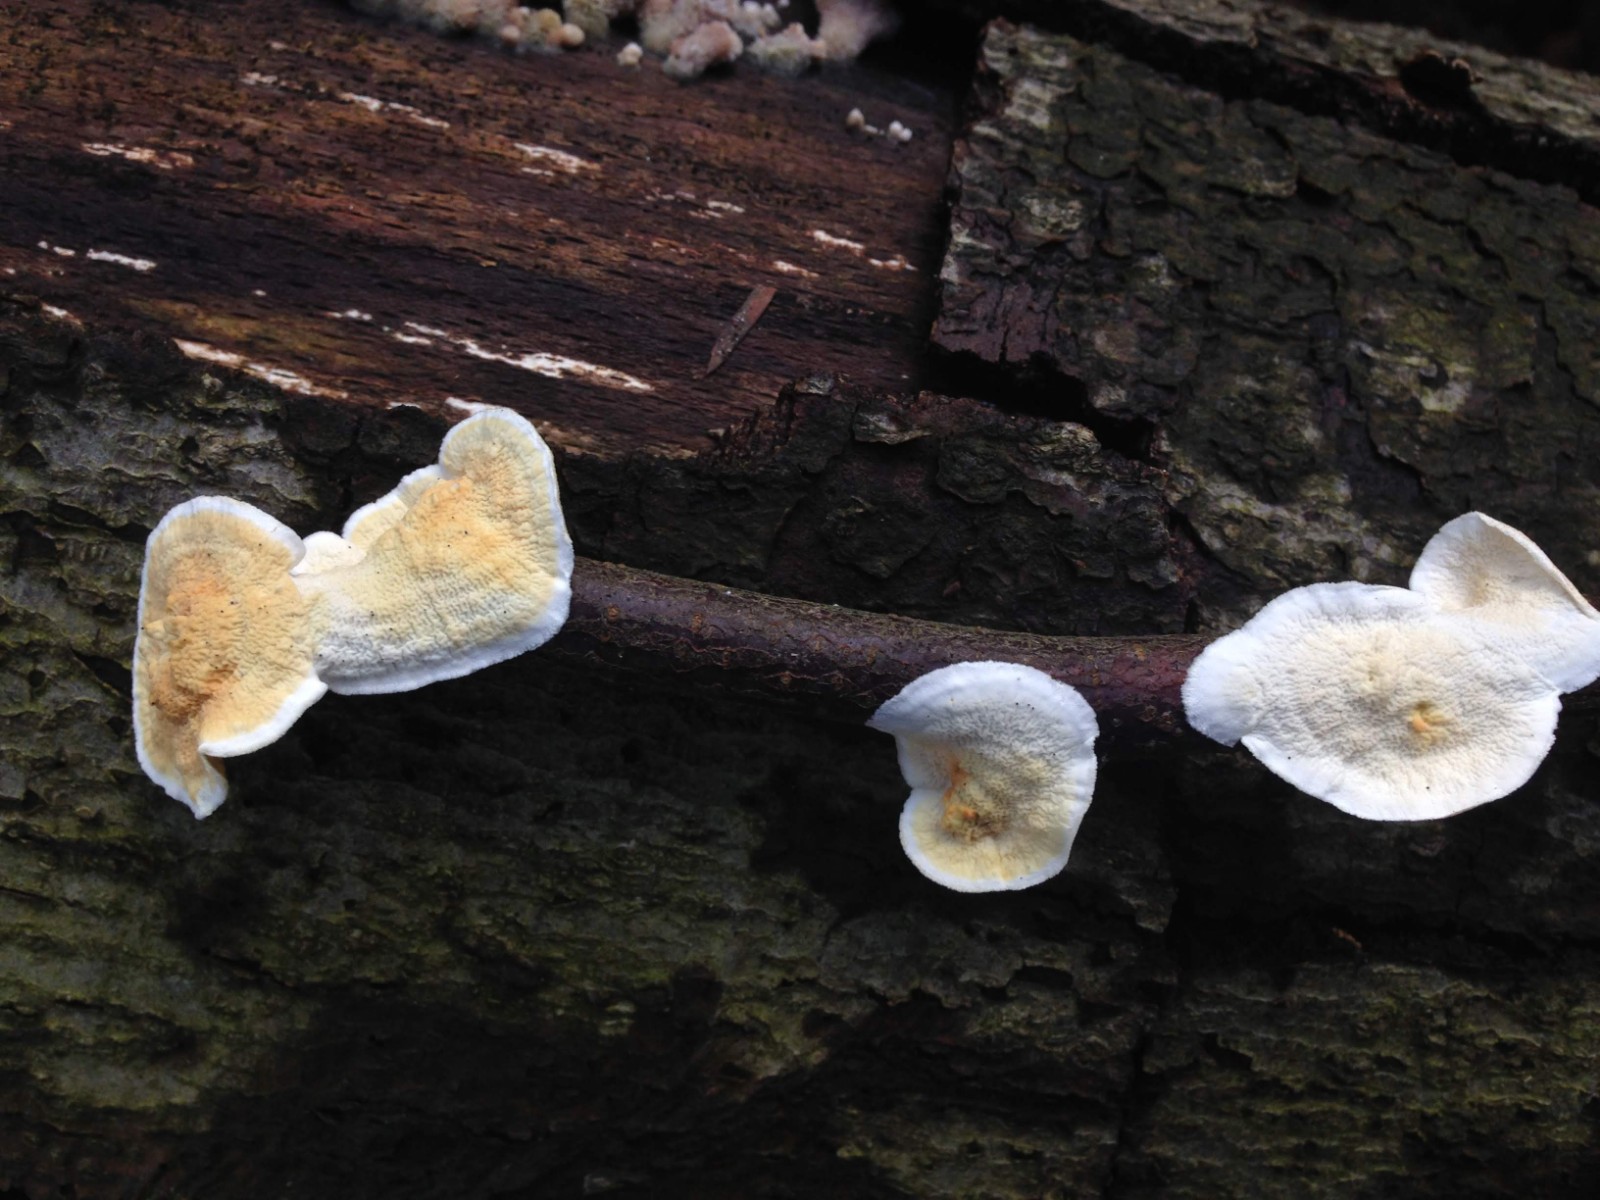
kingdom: Fungi
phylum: Basidiomycota
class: Agaricomycetes
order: Polyporales
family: Irpicaceae
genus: Byssomerulius
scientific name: Byssomerulius corium
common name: læder-åresvamp
